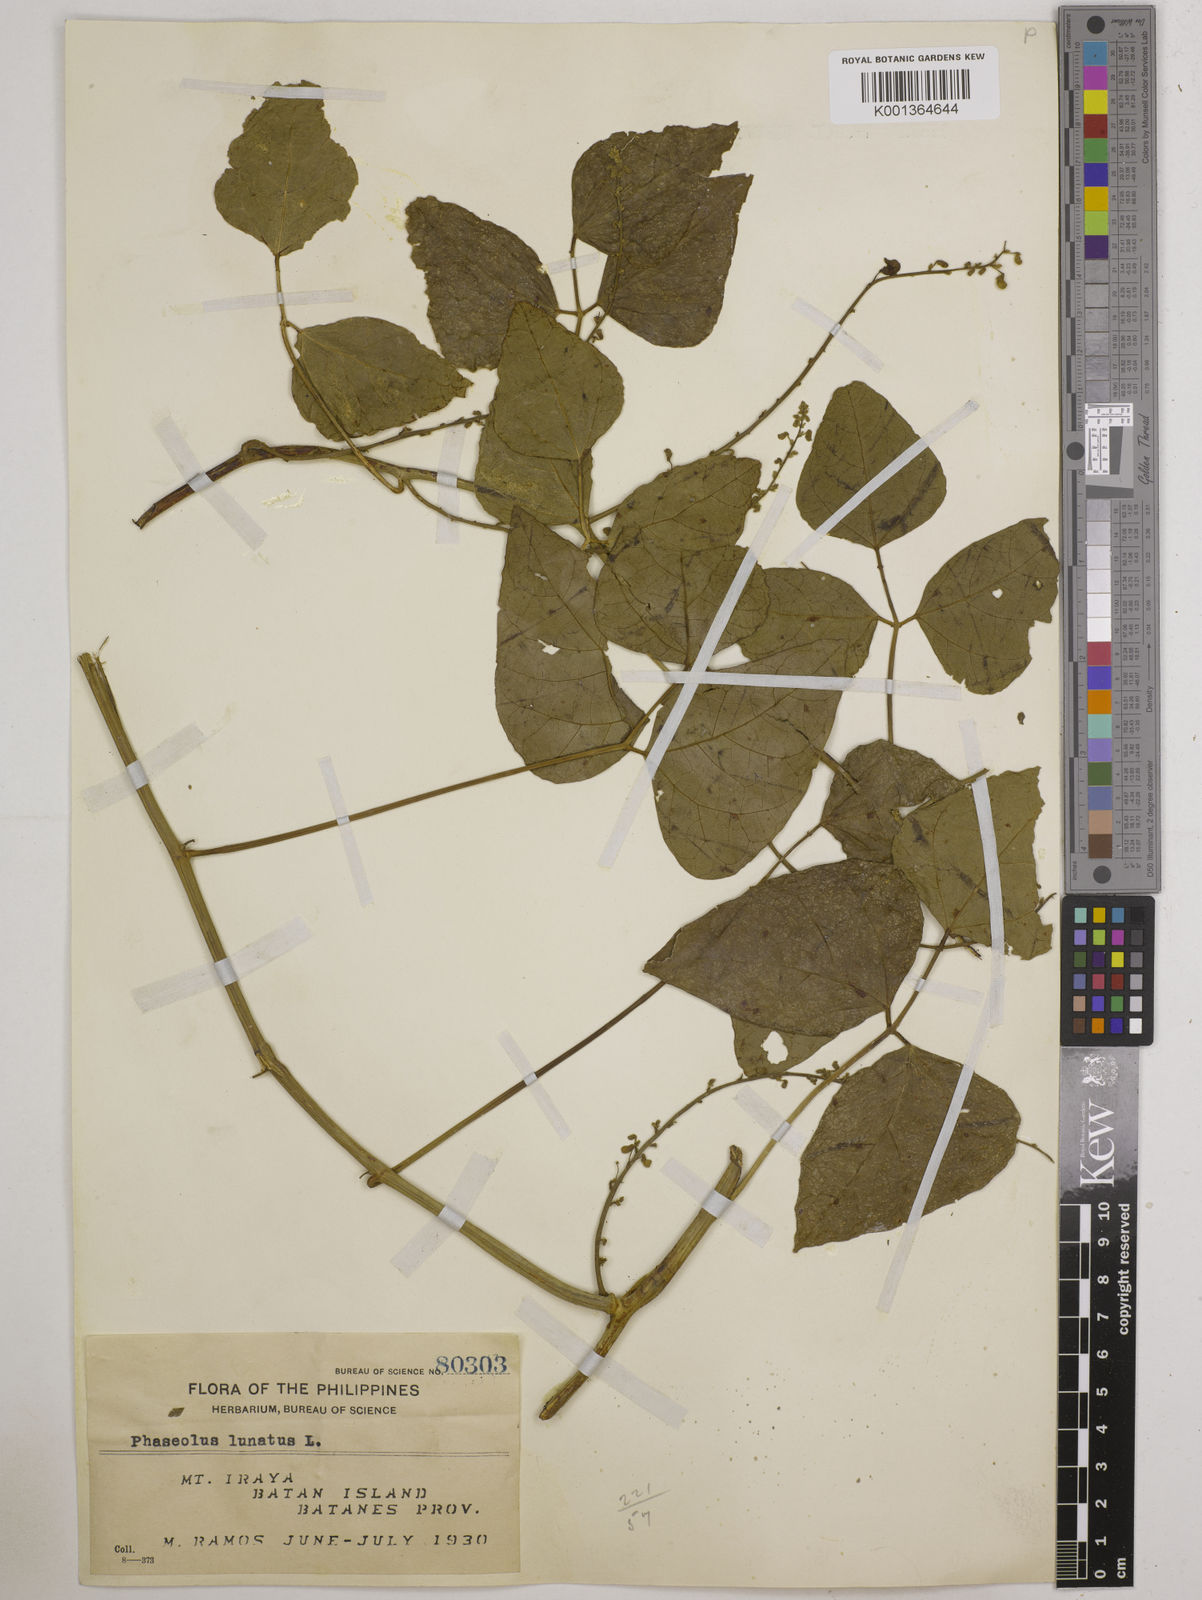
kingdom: Plantae
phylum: Tracheophyta
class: Magnoliopsida
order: Fabales
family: Fabaceae
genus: Phaseolus
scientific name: Phaseolus lunatus
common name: Sieva bean
